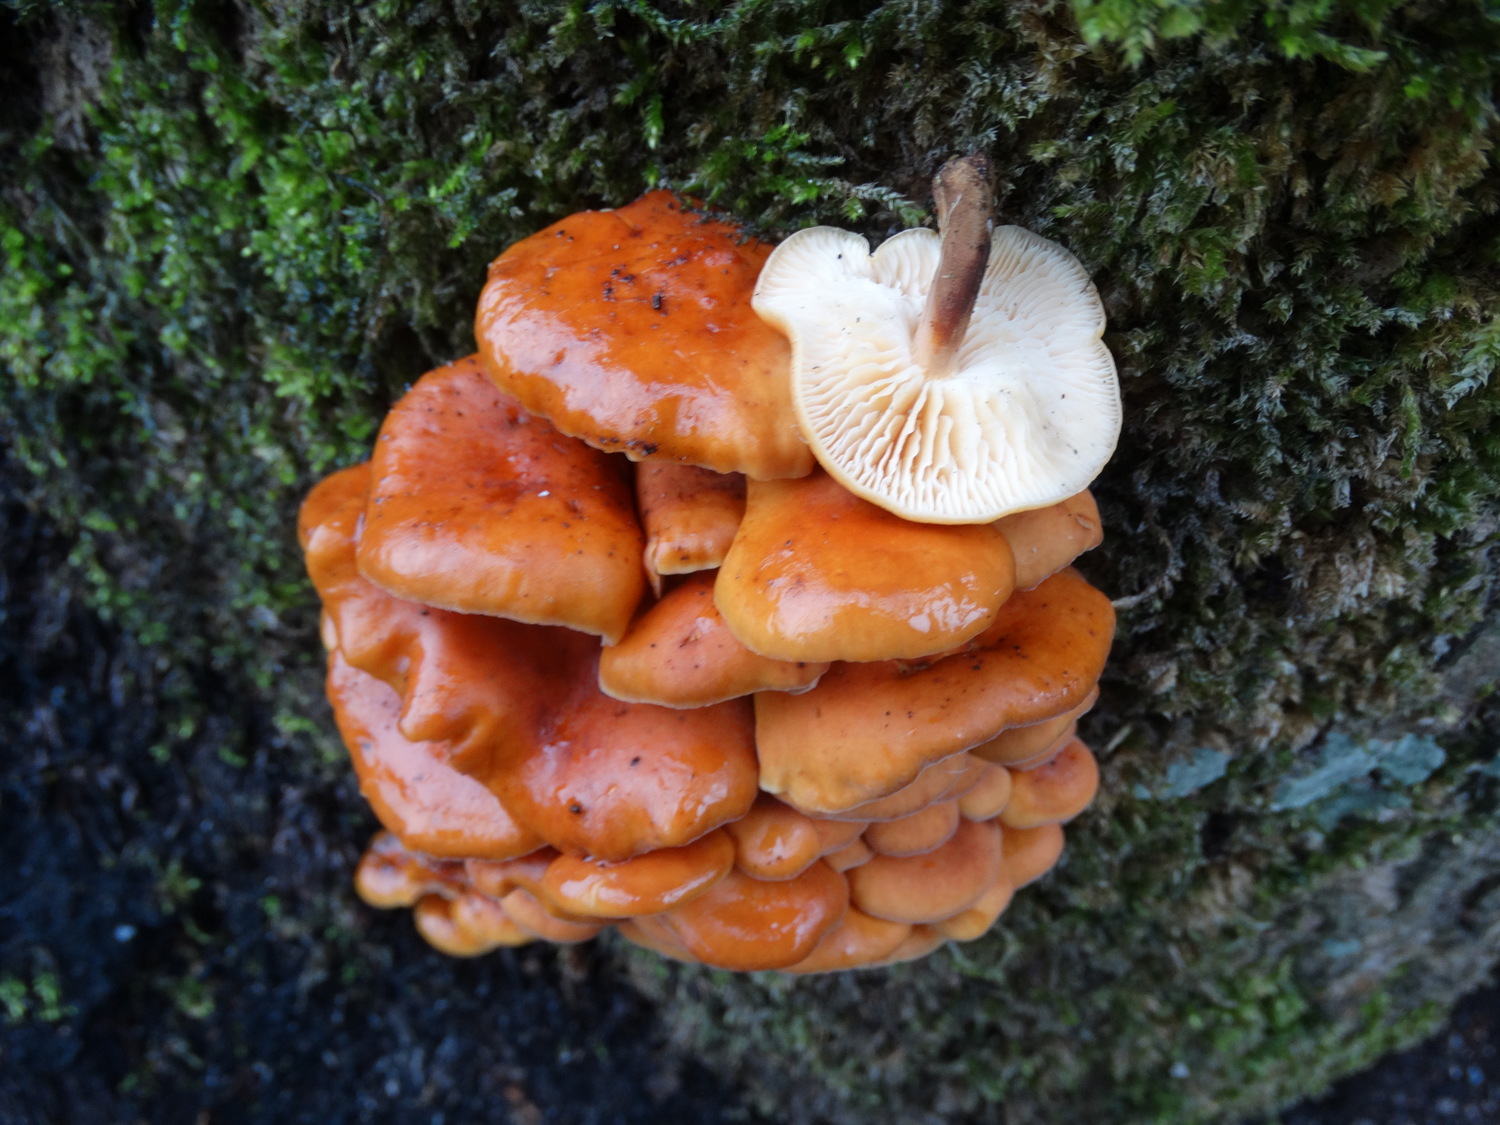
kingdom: Fungi
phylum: Basidiomycota
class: Agaricomycetes
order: Agaricales
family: Physalacriaceae
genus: Flammulina
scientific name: Flammulina velutipes
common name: gul fløjlsfod
